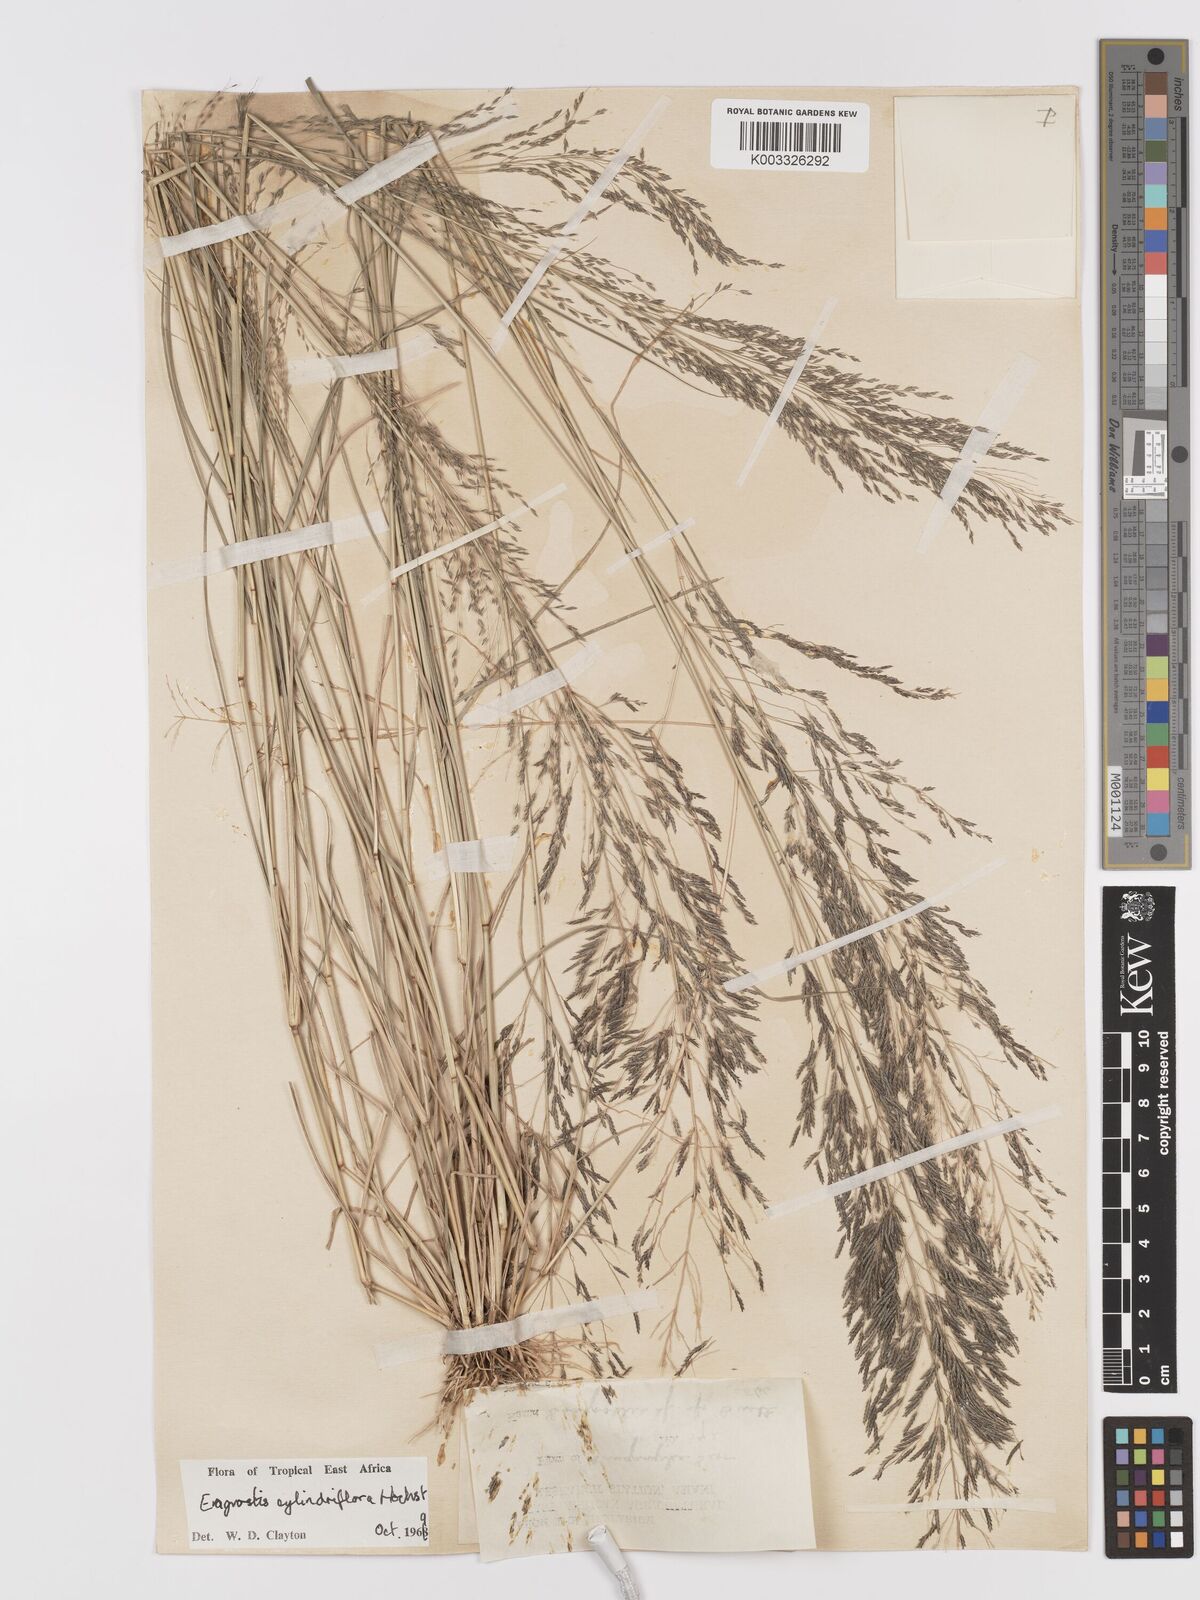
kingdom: Plantae
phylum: Tracheophyta
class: Liliopsida
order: Poales
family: Poaceae
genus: Eragrostis
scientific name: Eragrostis cylindriflora
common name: Cylinderflower lovegrass
